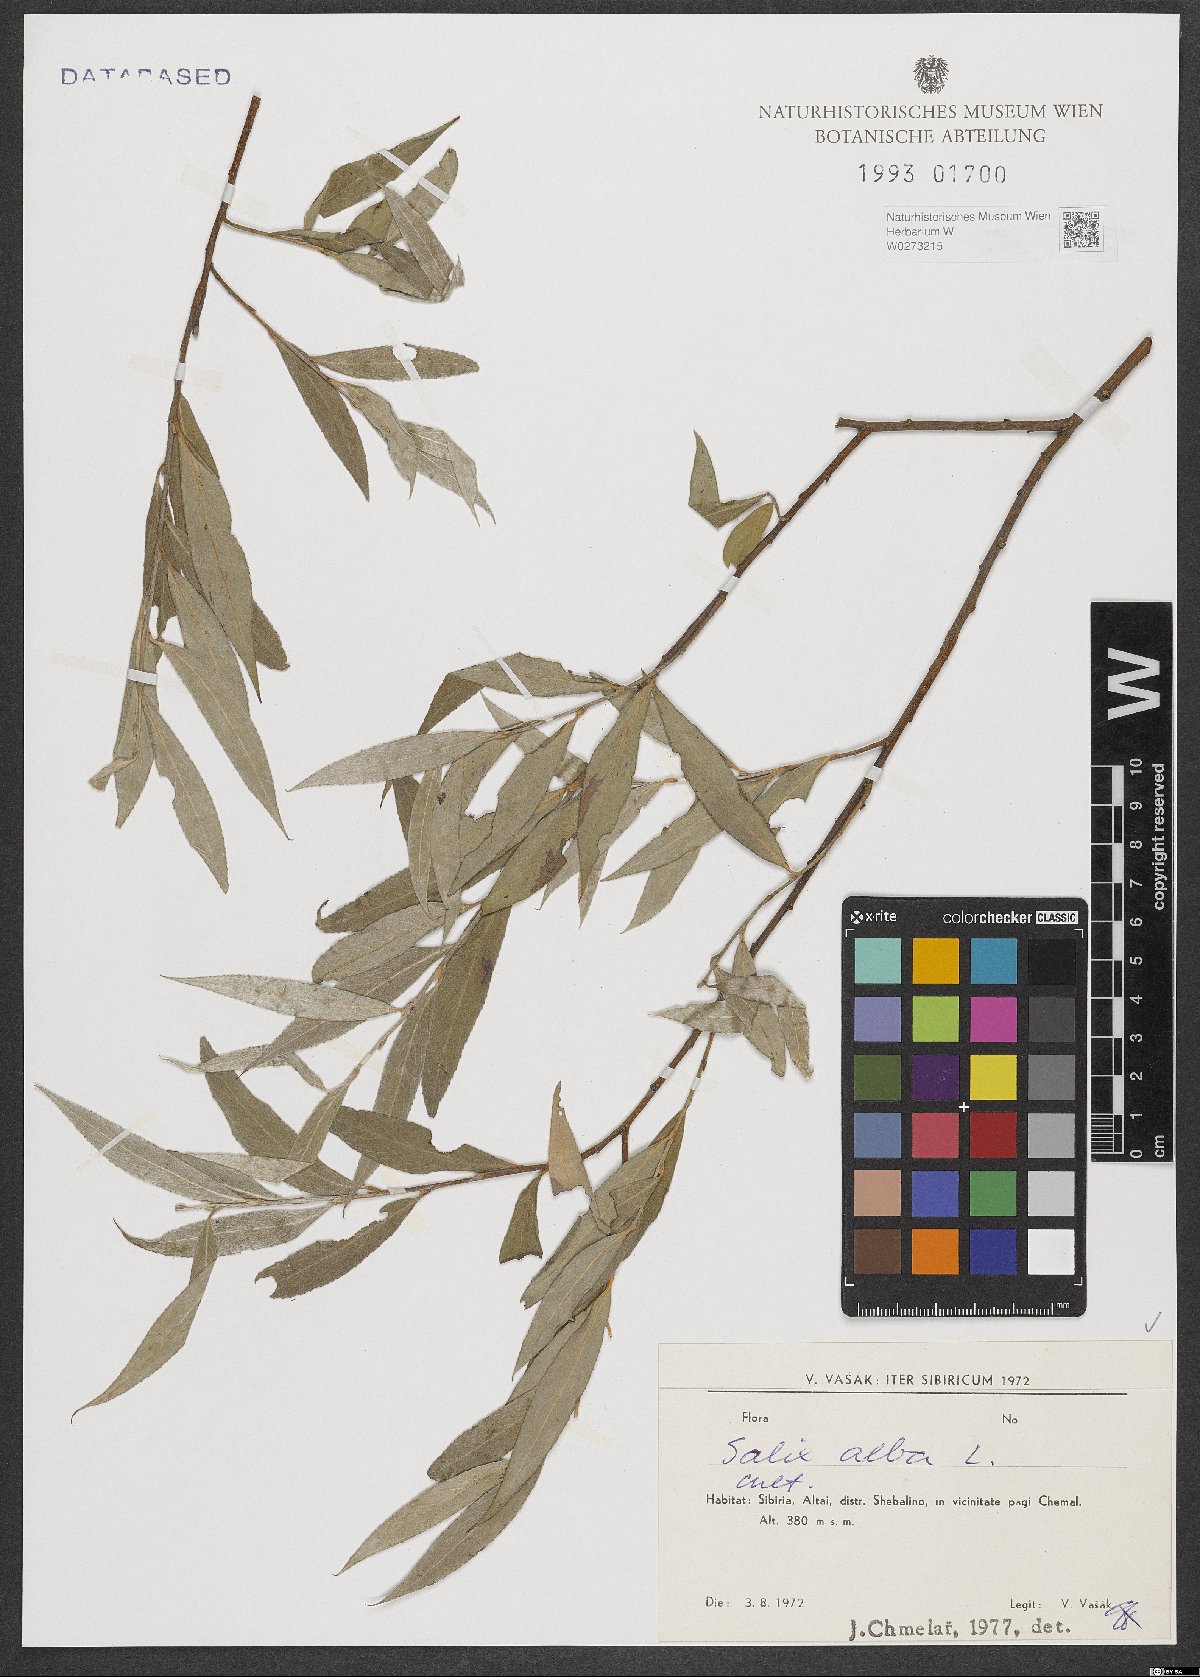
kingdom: Plantae
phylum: Tracheophyta
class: Magnoliopsida
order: Malpighiales
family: Salicaceae
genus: Salix
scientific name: Salix alba
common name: White willow
